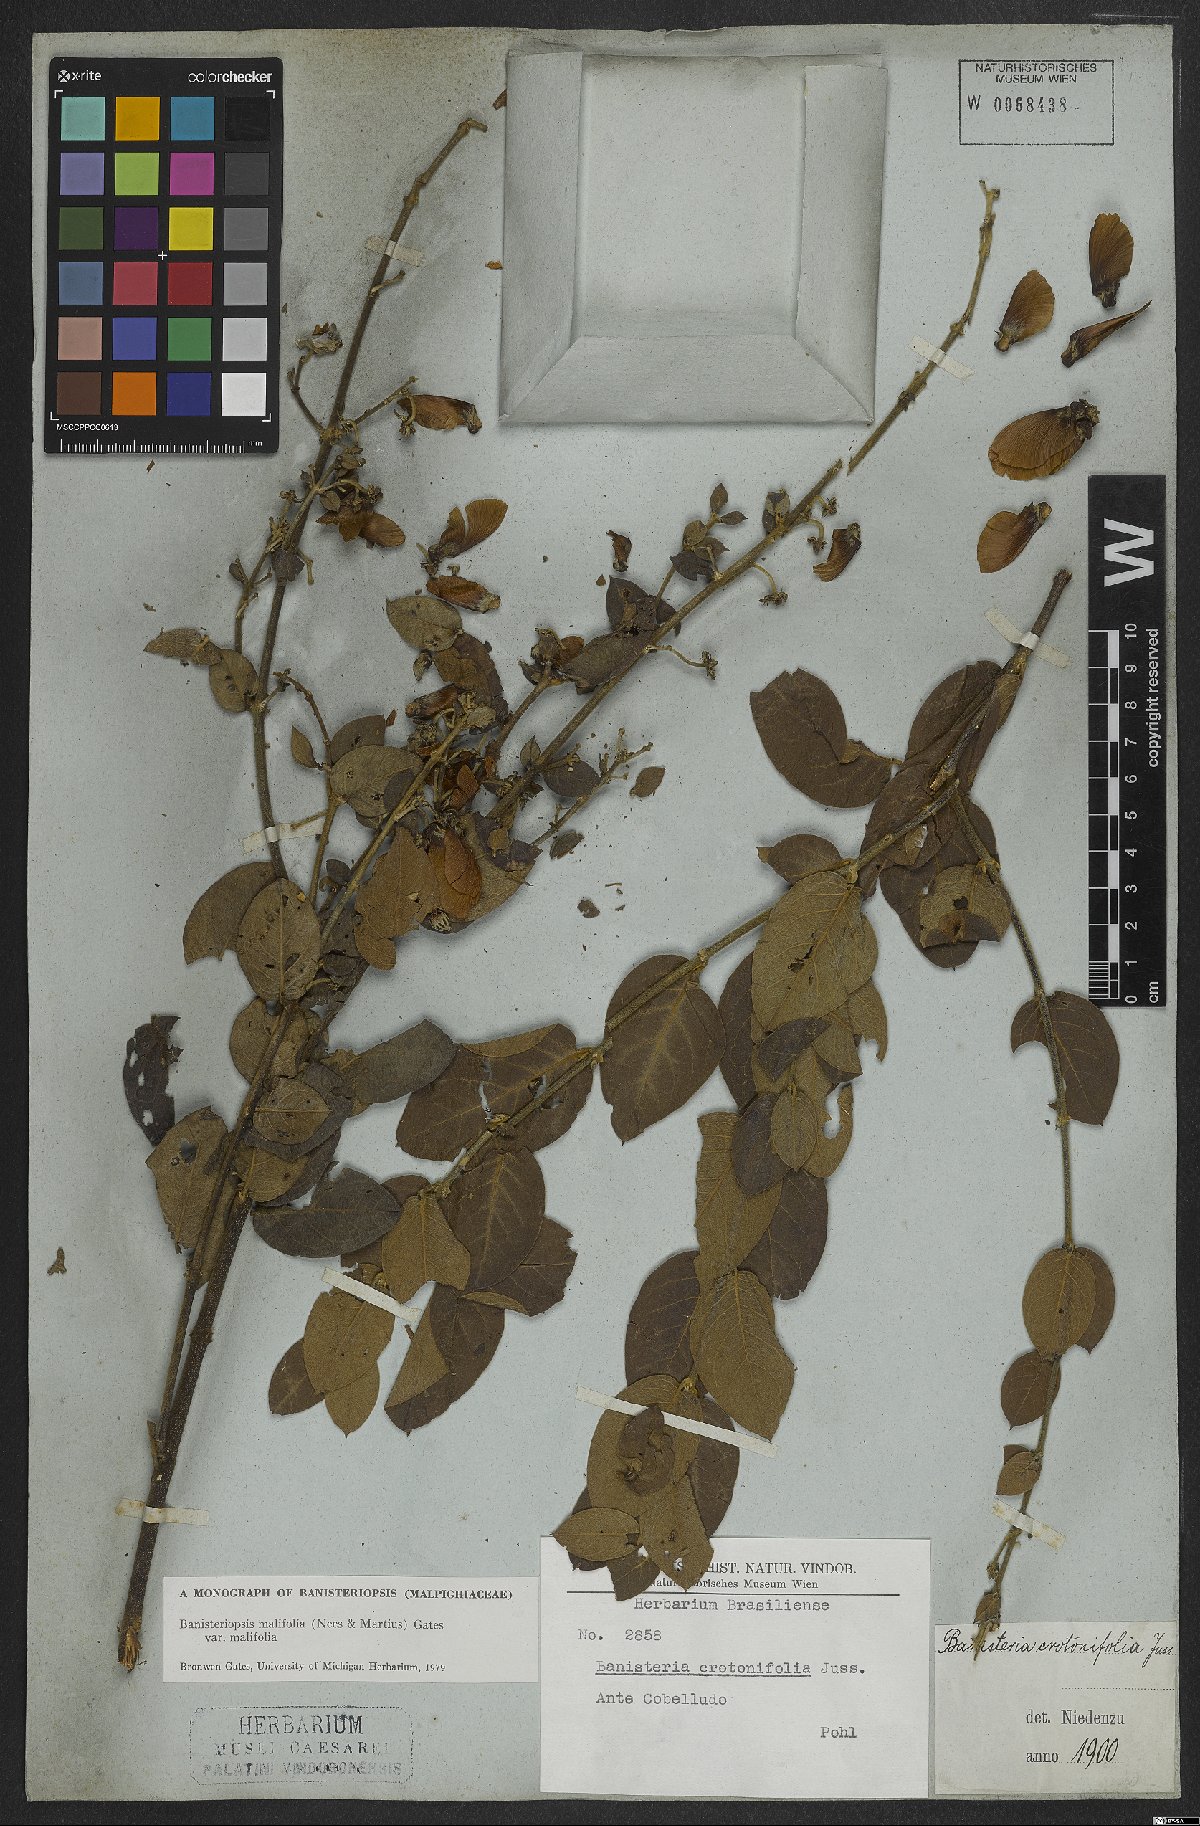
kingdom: Plantae
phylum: Tracheophyta
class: Magnoliopsida
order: Malpighiales
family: Malpighiaceae
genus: Banisteriopsis
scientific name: Banisteriopsis malifolia
